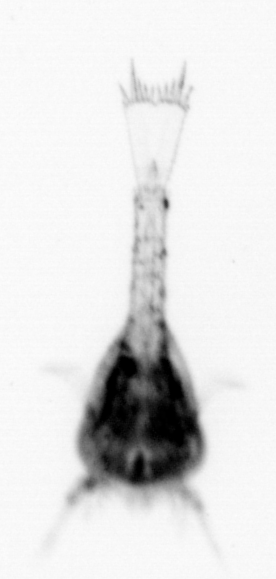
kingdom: Animalia
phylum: Arthropoda
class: Malacostraca
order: Decapoda
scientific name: Decapoda
